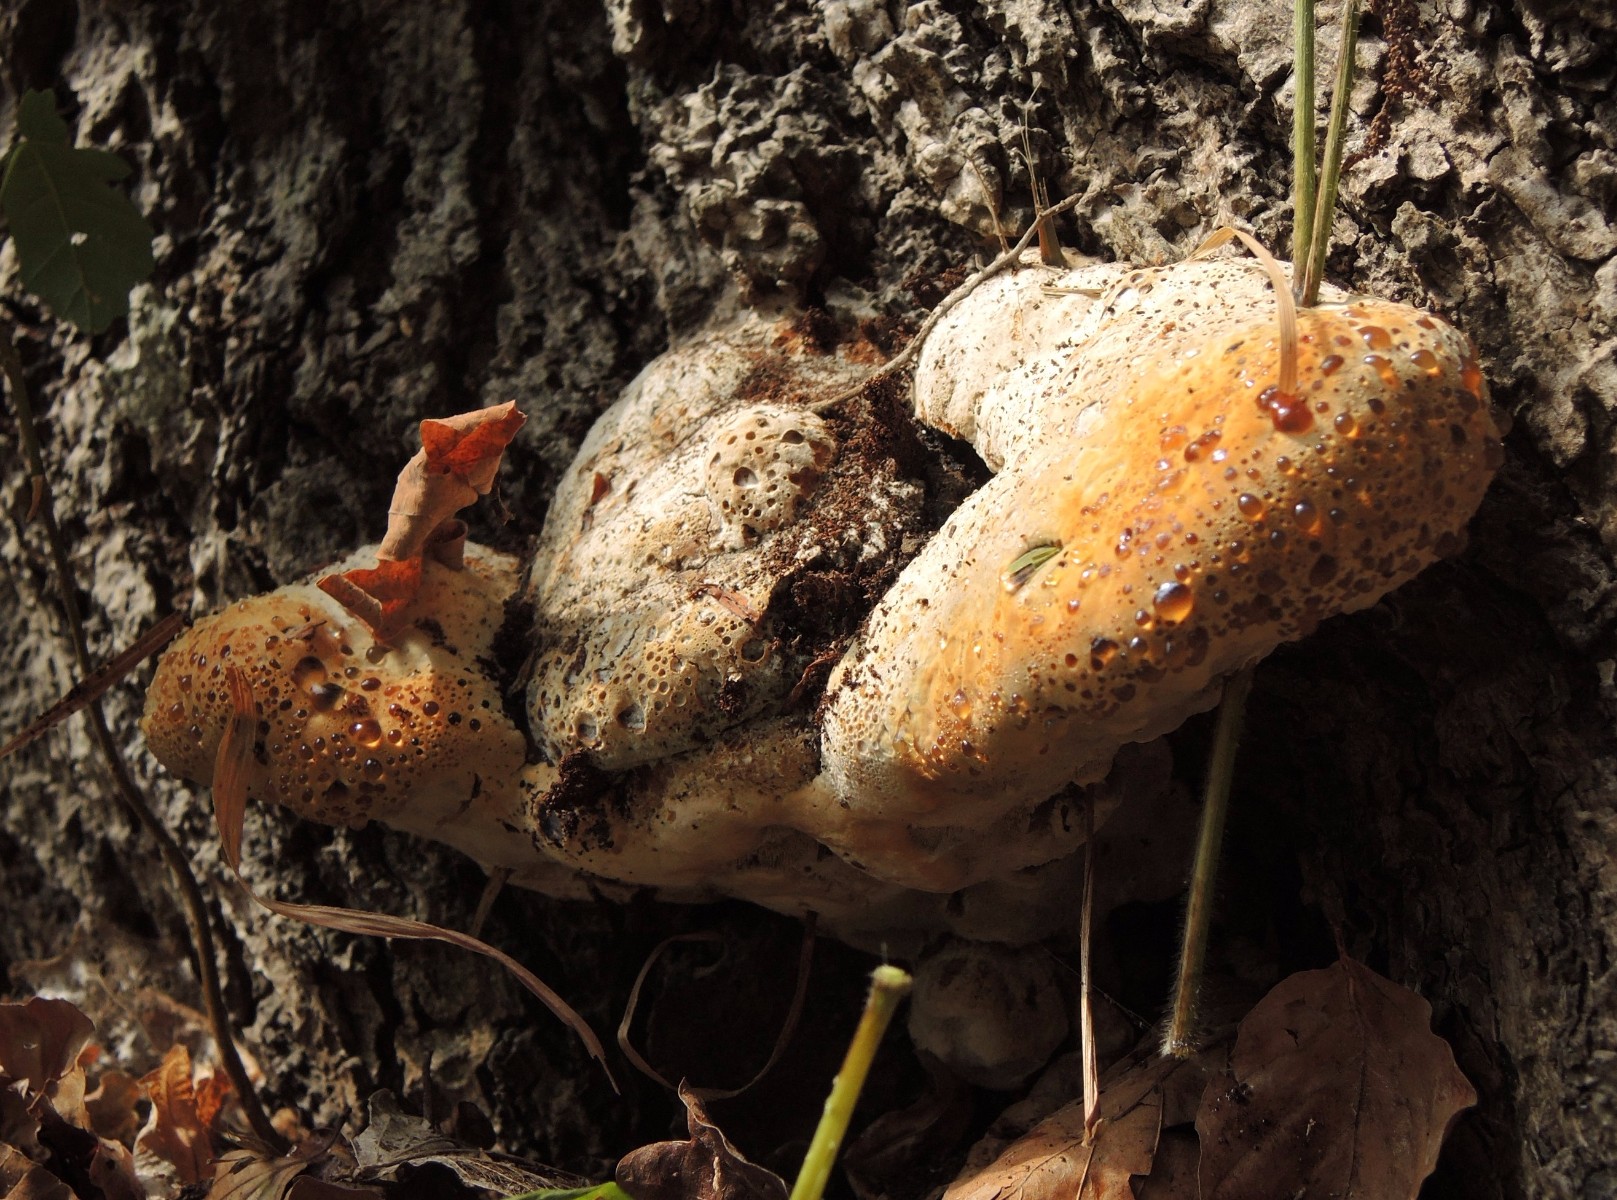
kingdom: Fungi
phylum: Basidiomycota
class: Agaricomycetes
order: Hymenochaetales
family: Hymenochaetaceae
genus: Pseudoinonotus
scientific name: Pseudoinonotus dryadeus
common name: ege-spejlporesvamp
